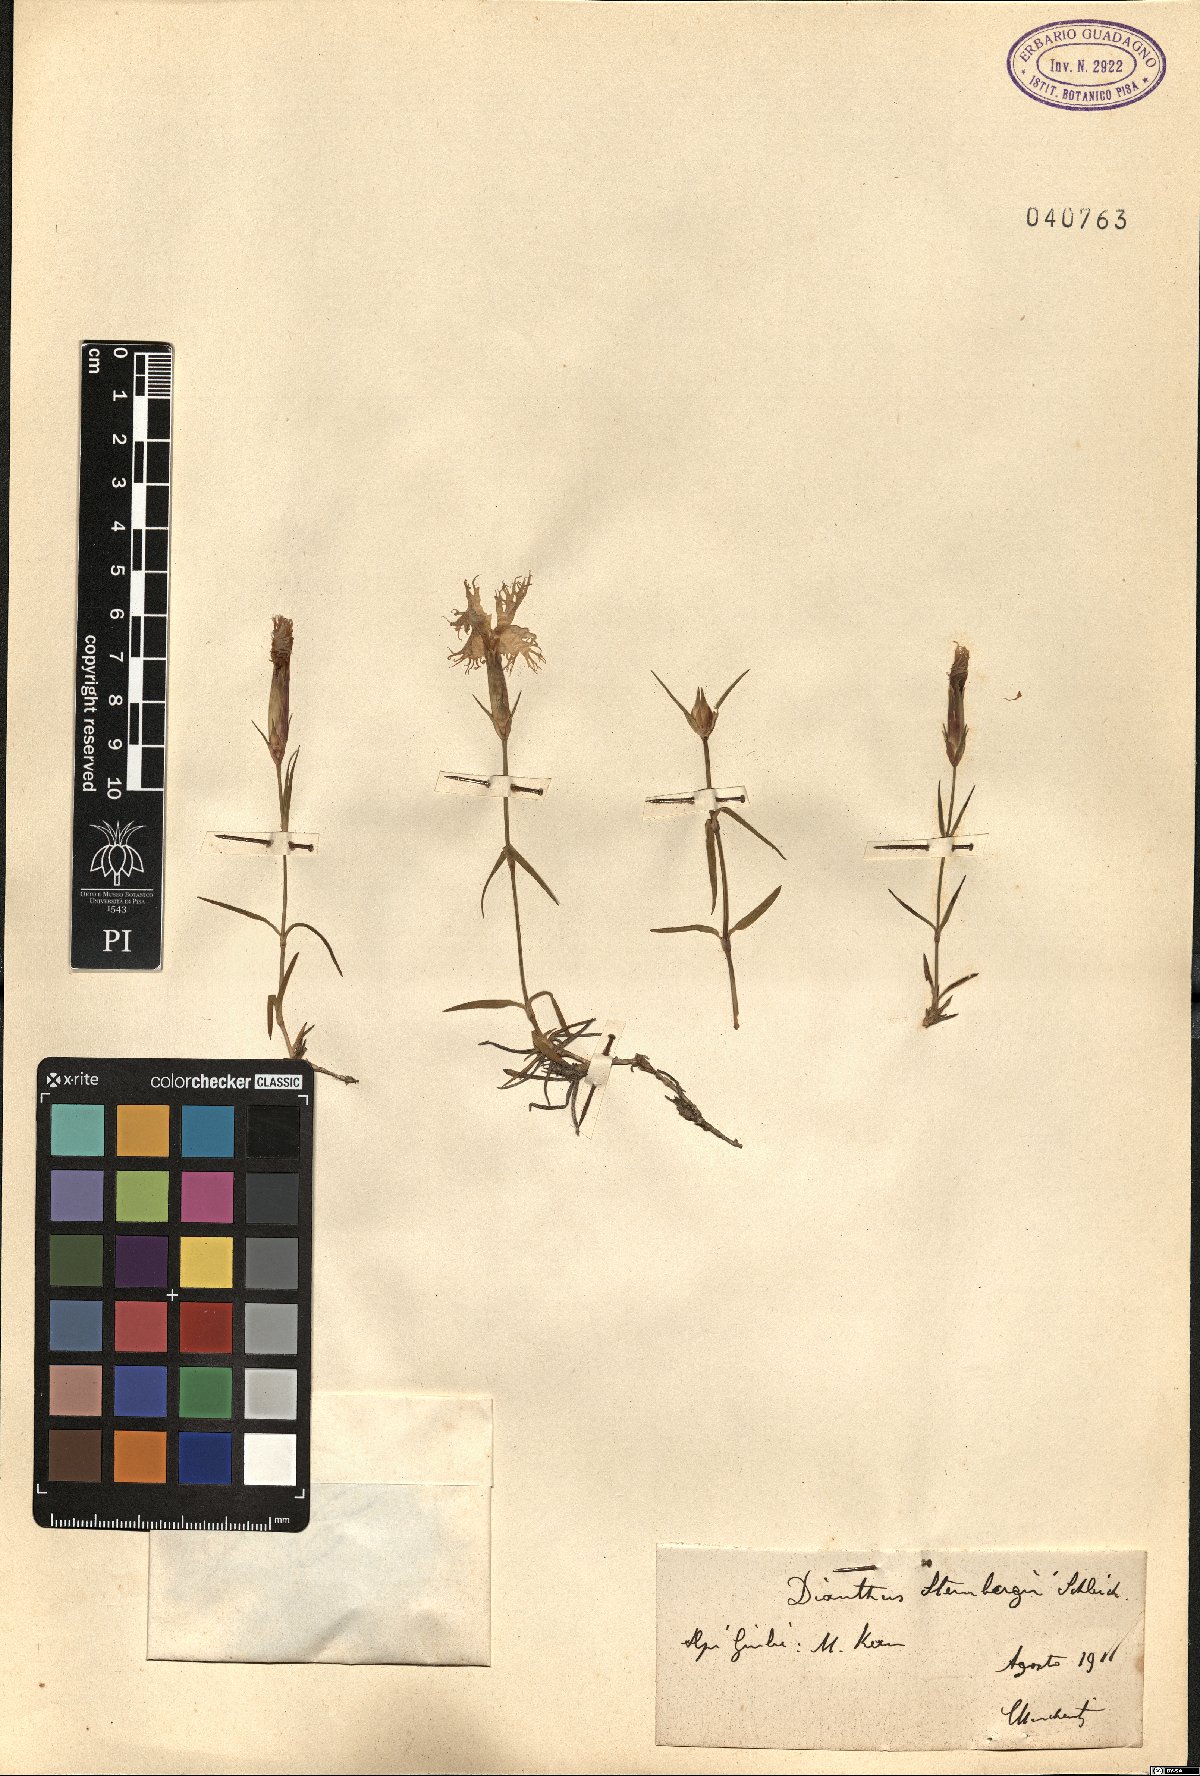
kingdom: Plantae
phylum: Tracheophyta
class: Magnoliopsida
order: Caryophyllales
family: Caryophyllaceae
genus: Dianthus
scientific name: Dianthus sternbergii
